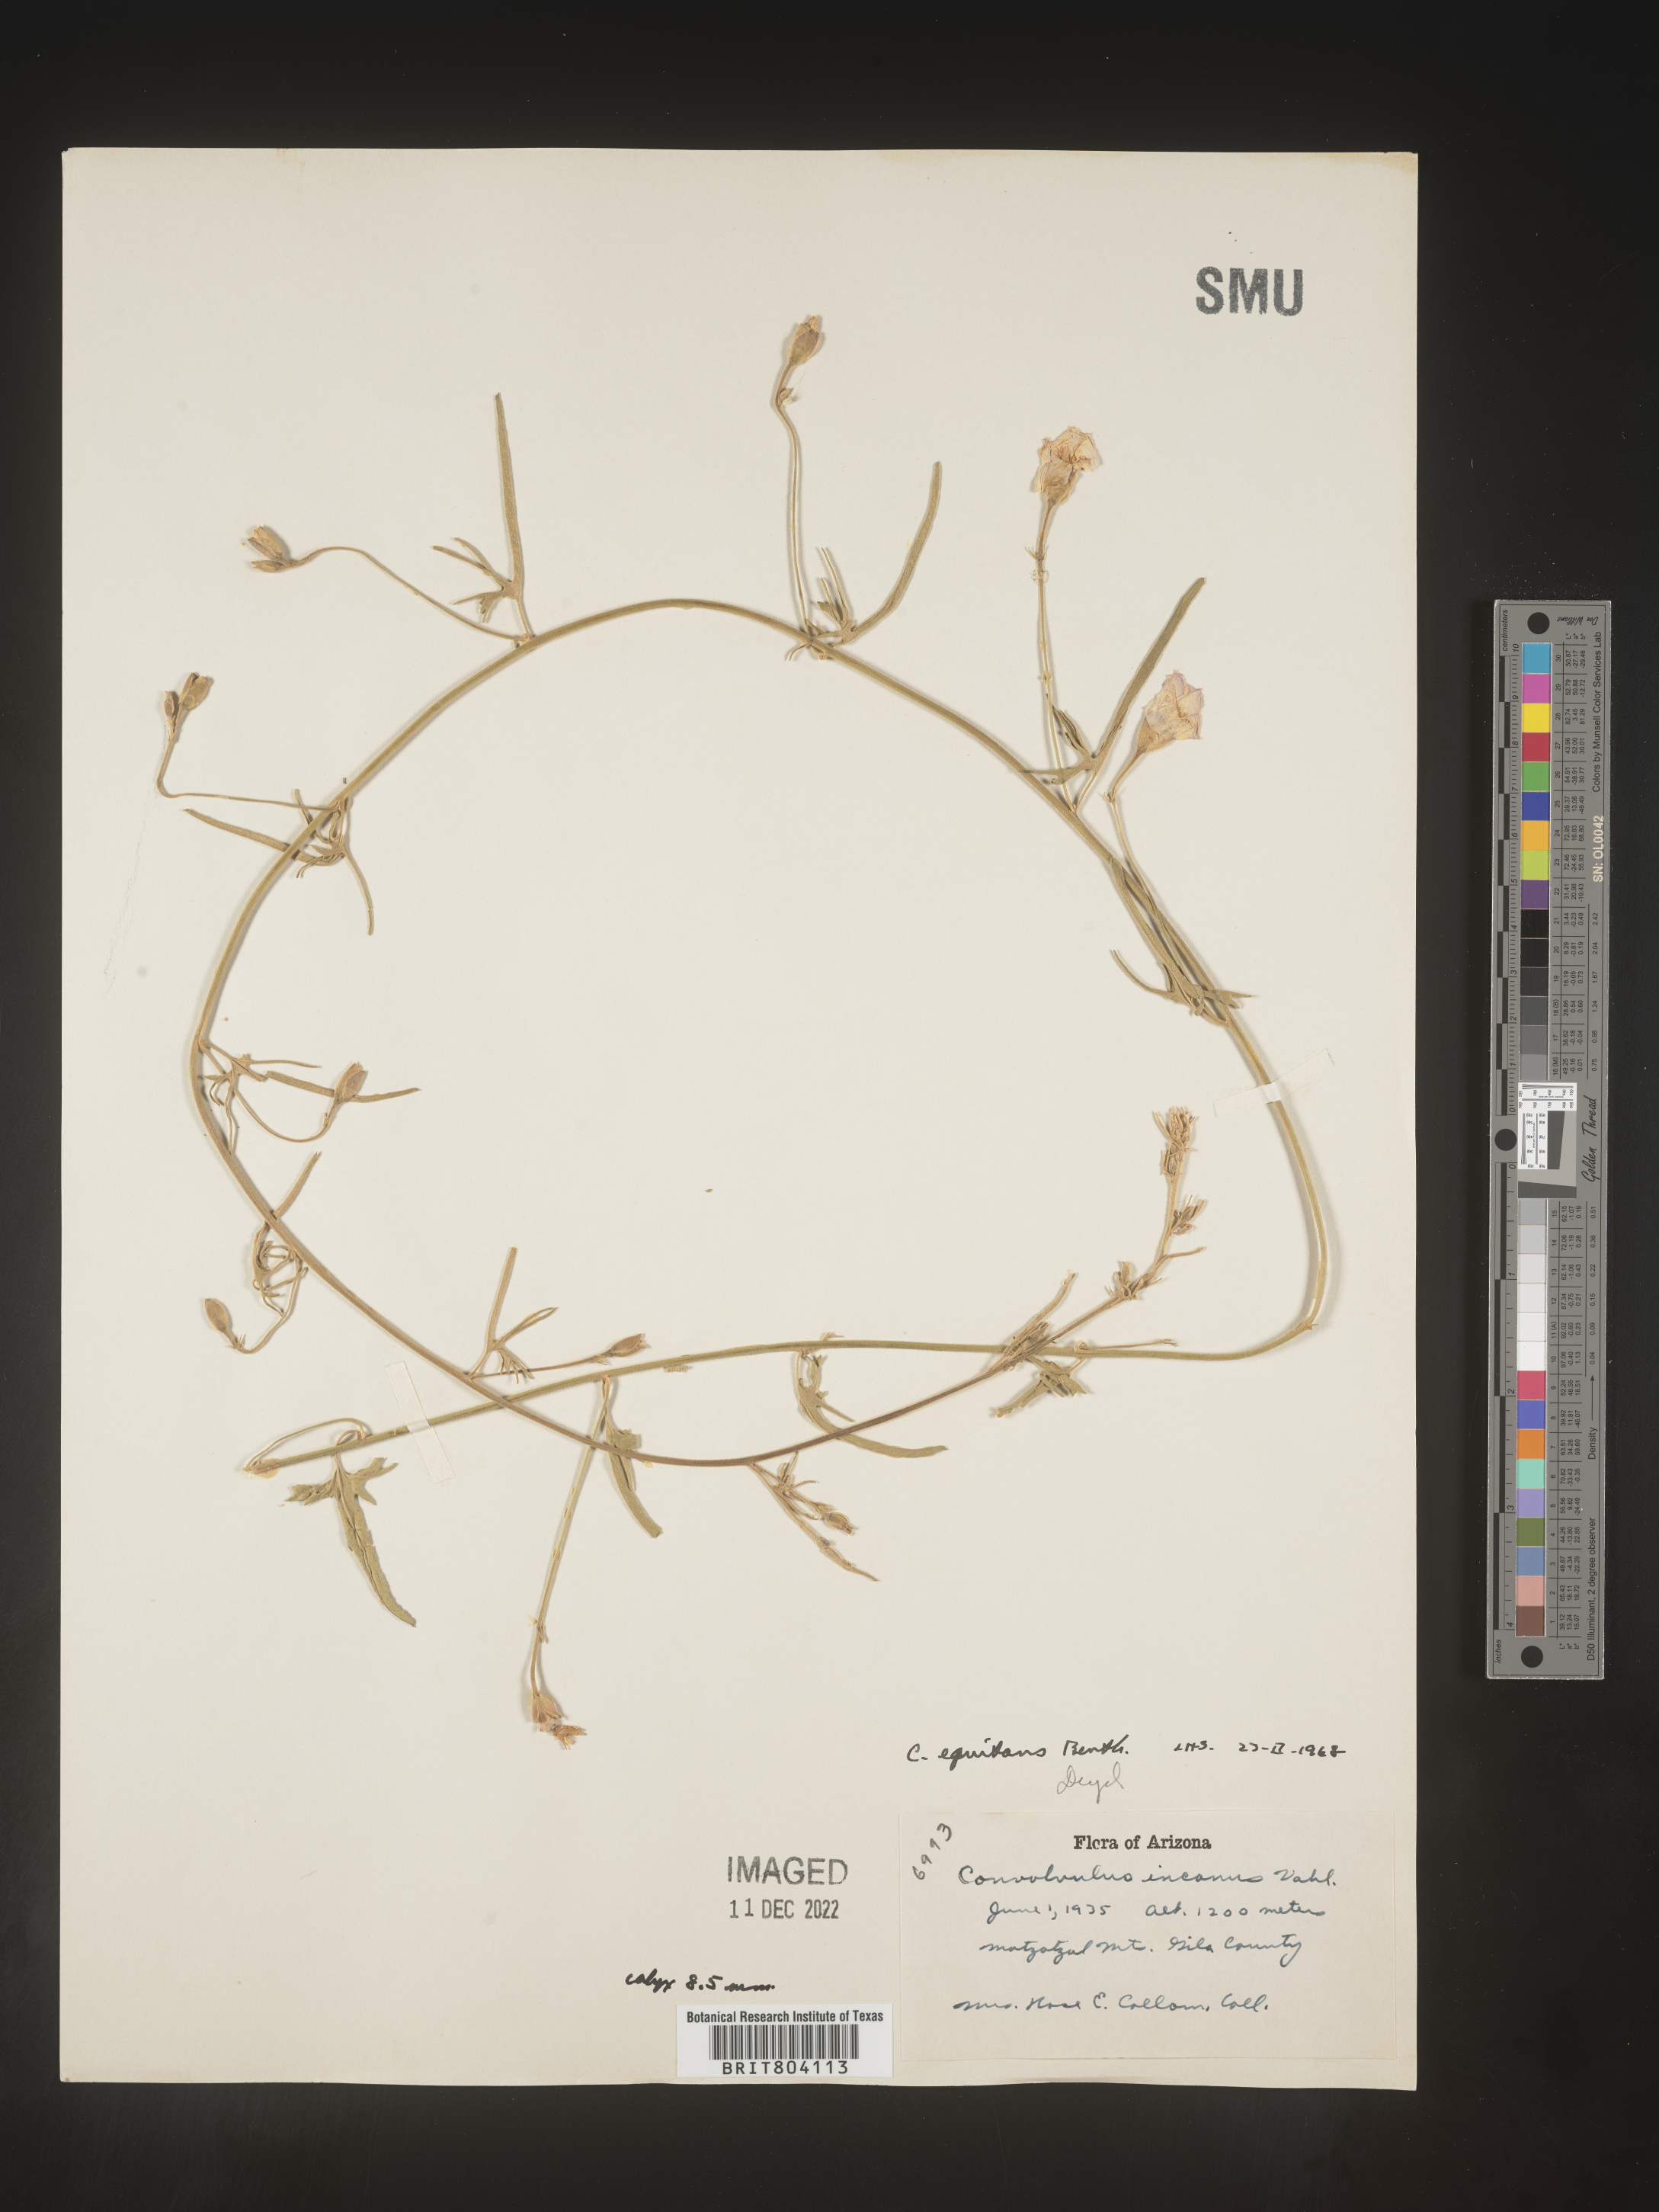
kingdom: Plantae
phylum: Tracheophyta
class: Magnoliopsida
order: Solanales
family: Convolvulaceae
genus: Convolvulus
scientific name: Convolvulus equitans
